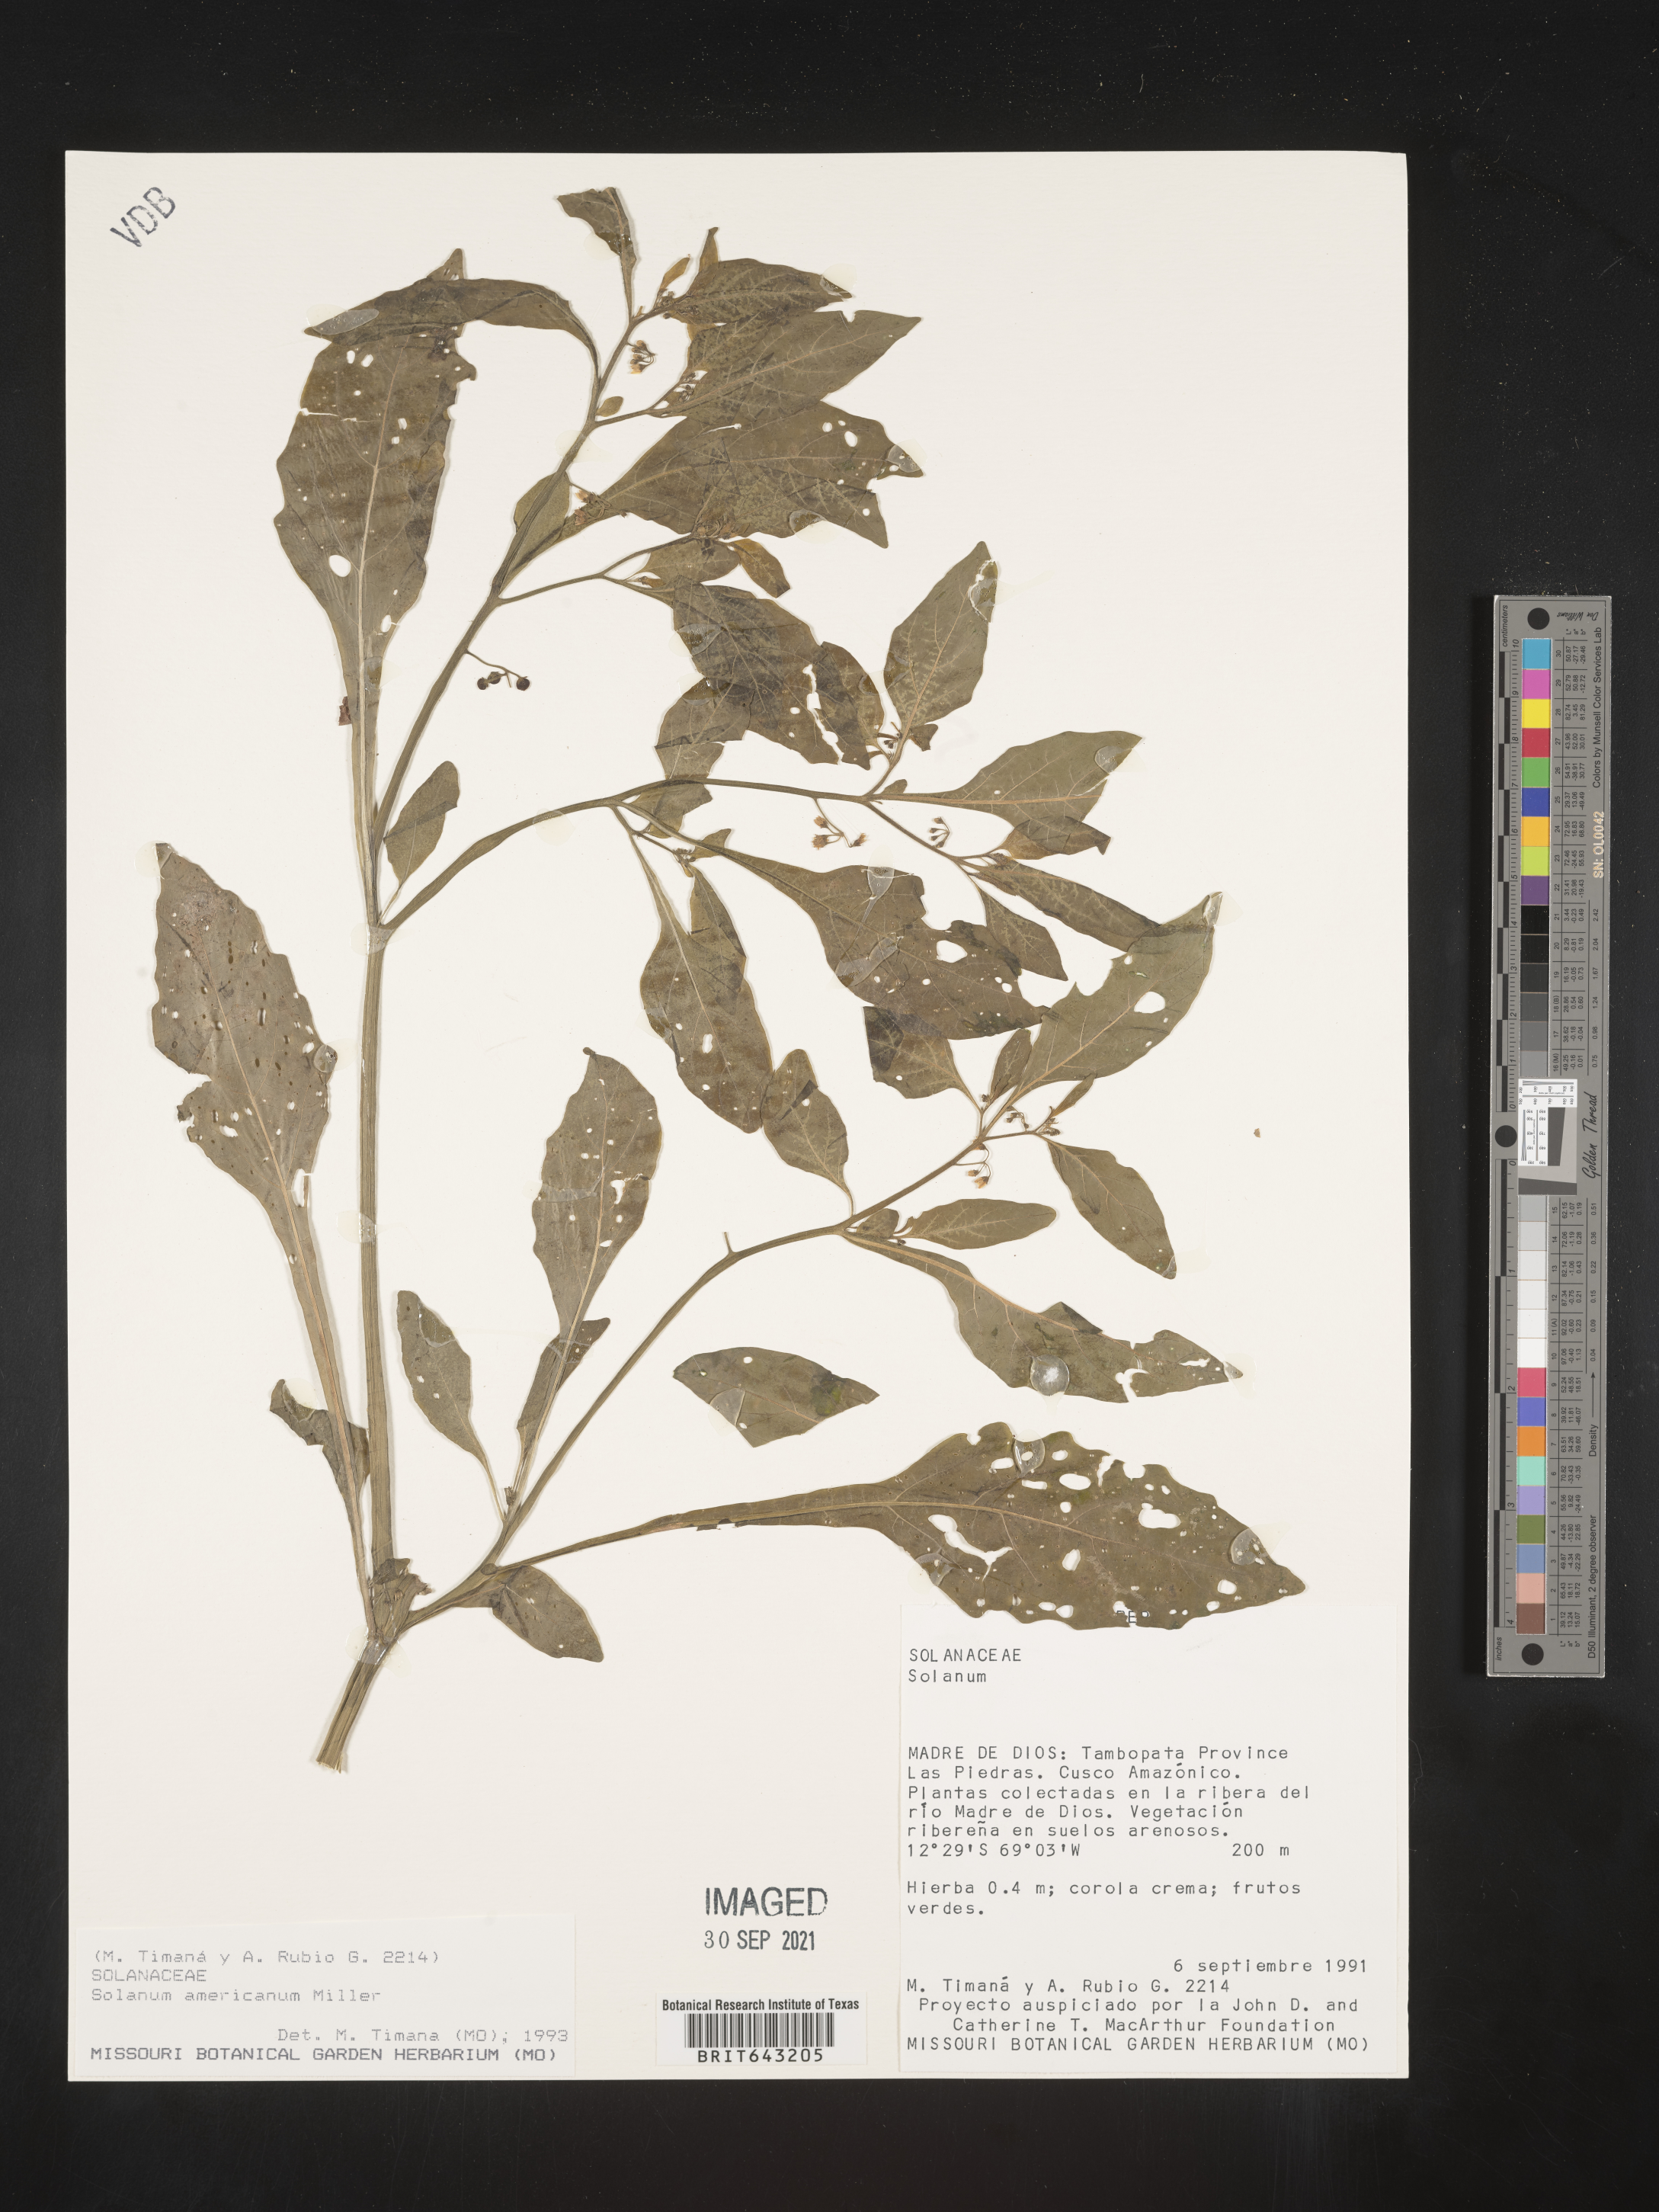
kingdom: Plantae
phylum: Tracheophyta
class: Magnoliopsida
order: Solanales
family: Solanaceae
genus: Solanum
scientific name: Solanum
